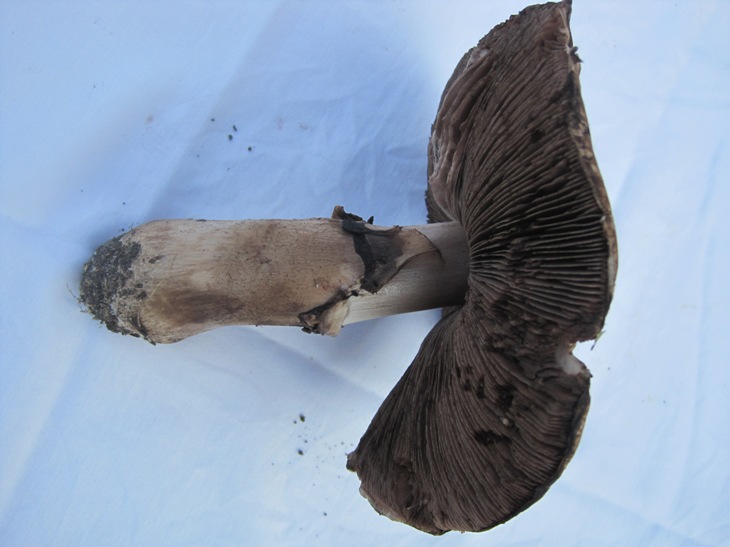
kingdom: Fungi
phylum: Basidiomycota
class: Agaricomycetes
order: Agaricales
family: Agaricaceae
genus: Agaricus
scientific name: Agaricus augustus
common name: prægtig champignon
